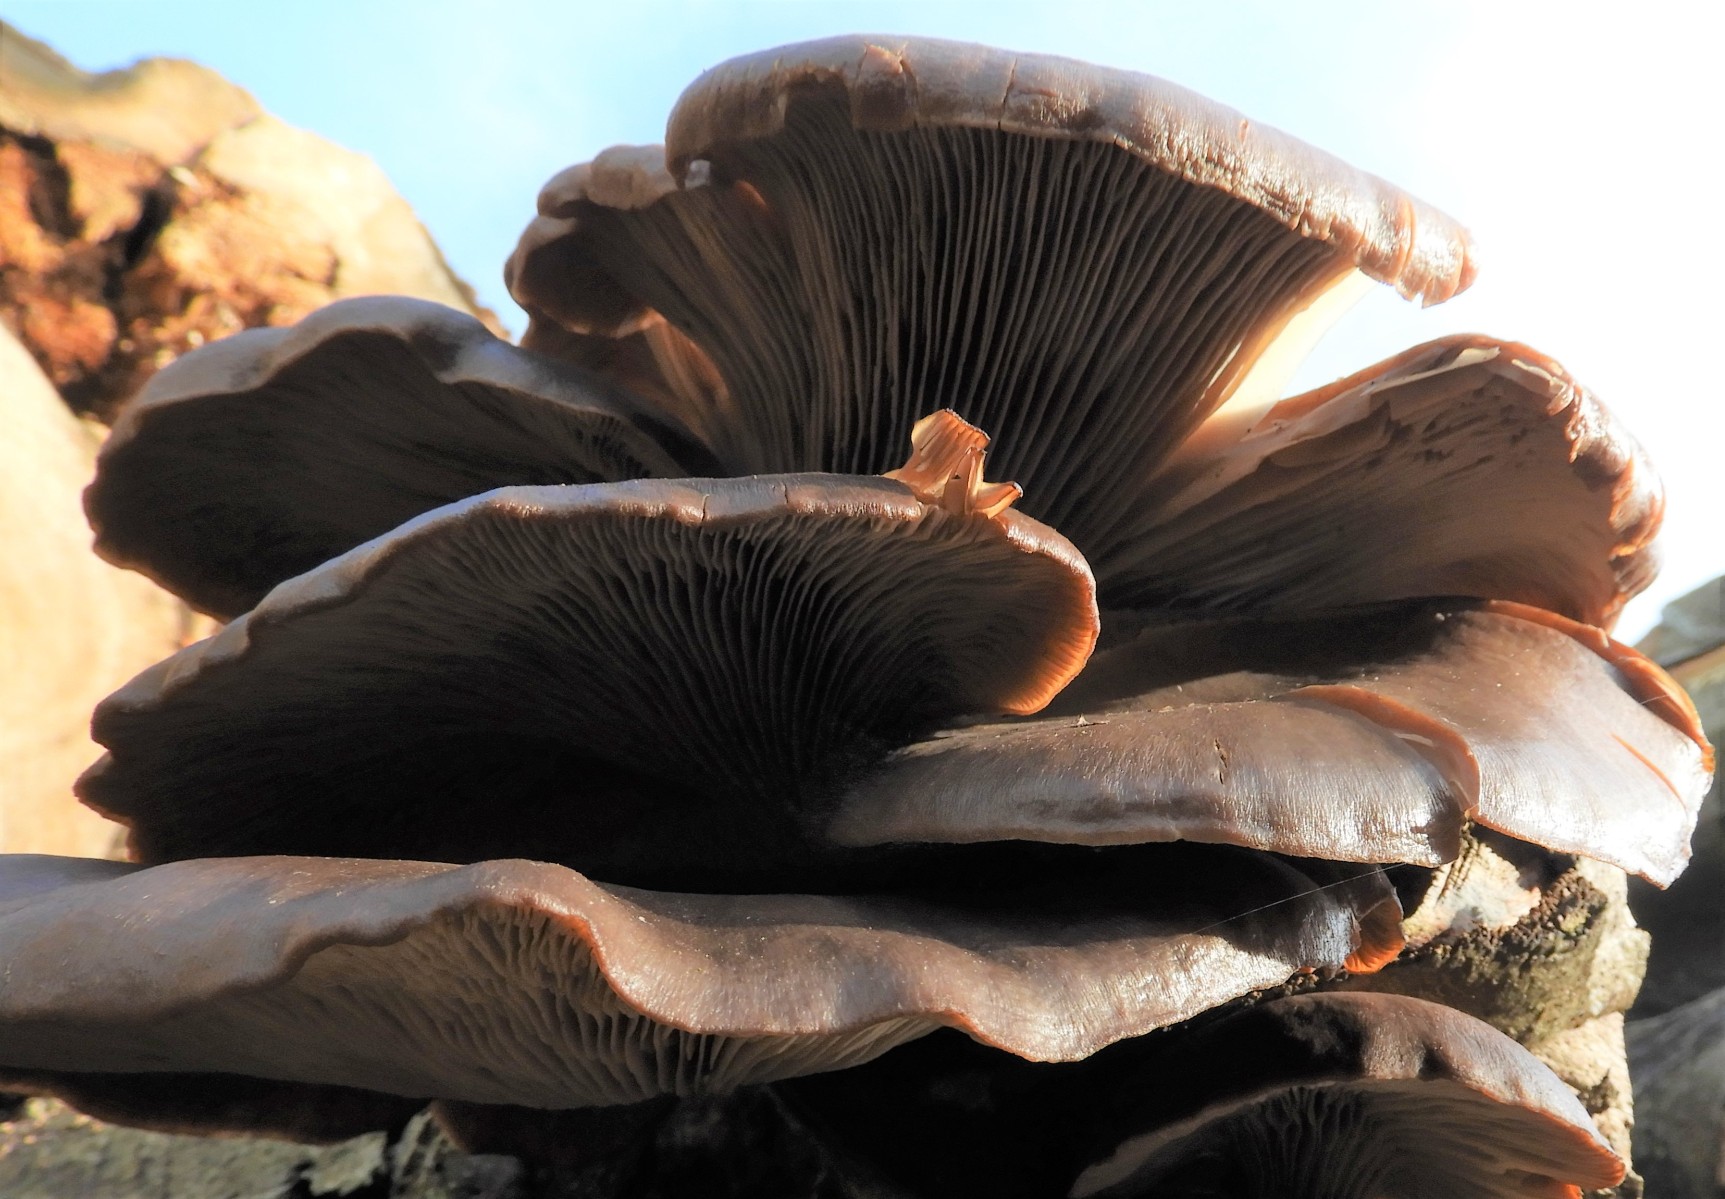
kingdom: Fungi
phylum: Basidiomycota
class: Agaricomycetes
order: Agaricales
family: Pleurotaceae
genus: Pleurotus
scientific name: Pleurotus ostreatus
